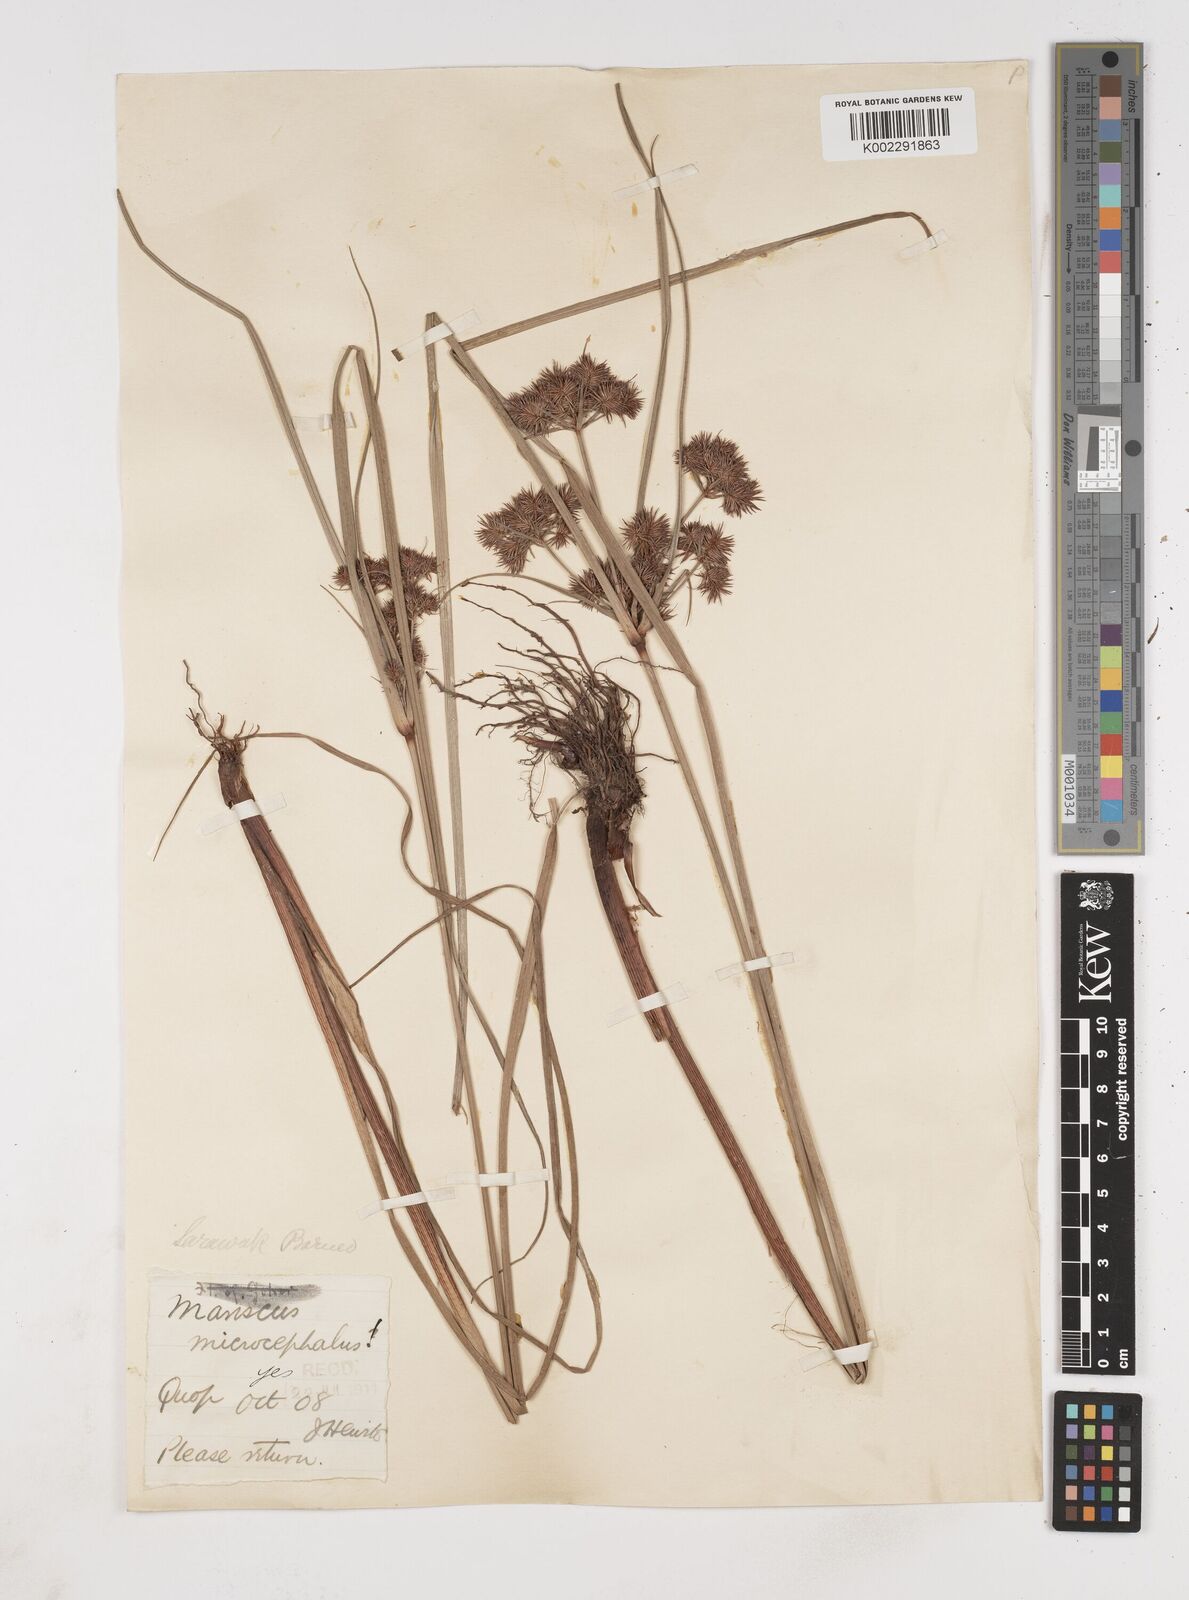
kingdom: Plantae
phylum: Tracheophyta
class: Liliopsida
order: Poales
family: Cyperaceae
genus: Cyperus
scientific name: Cyperus compactus
